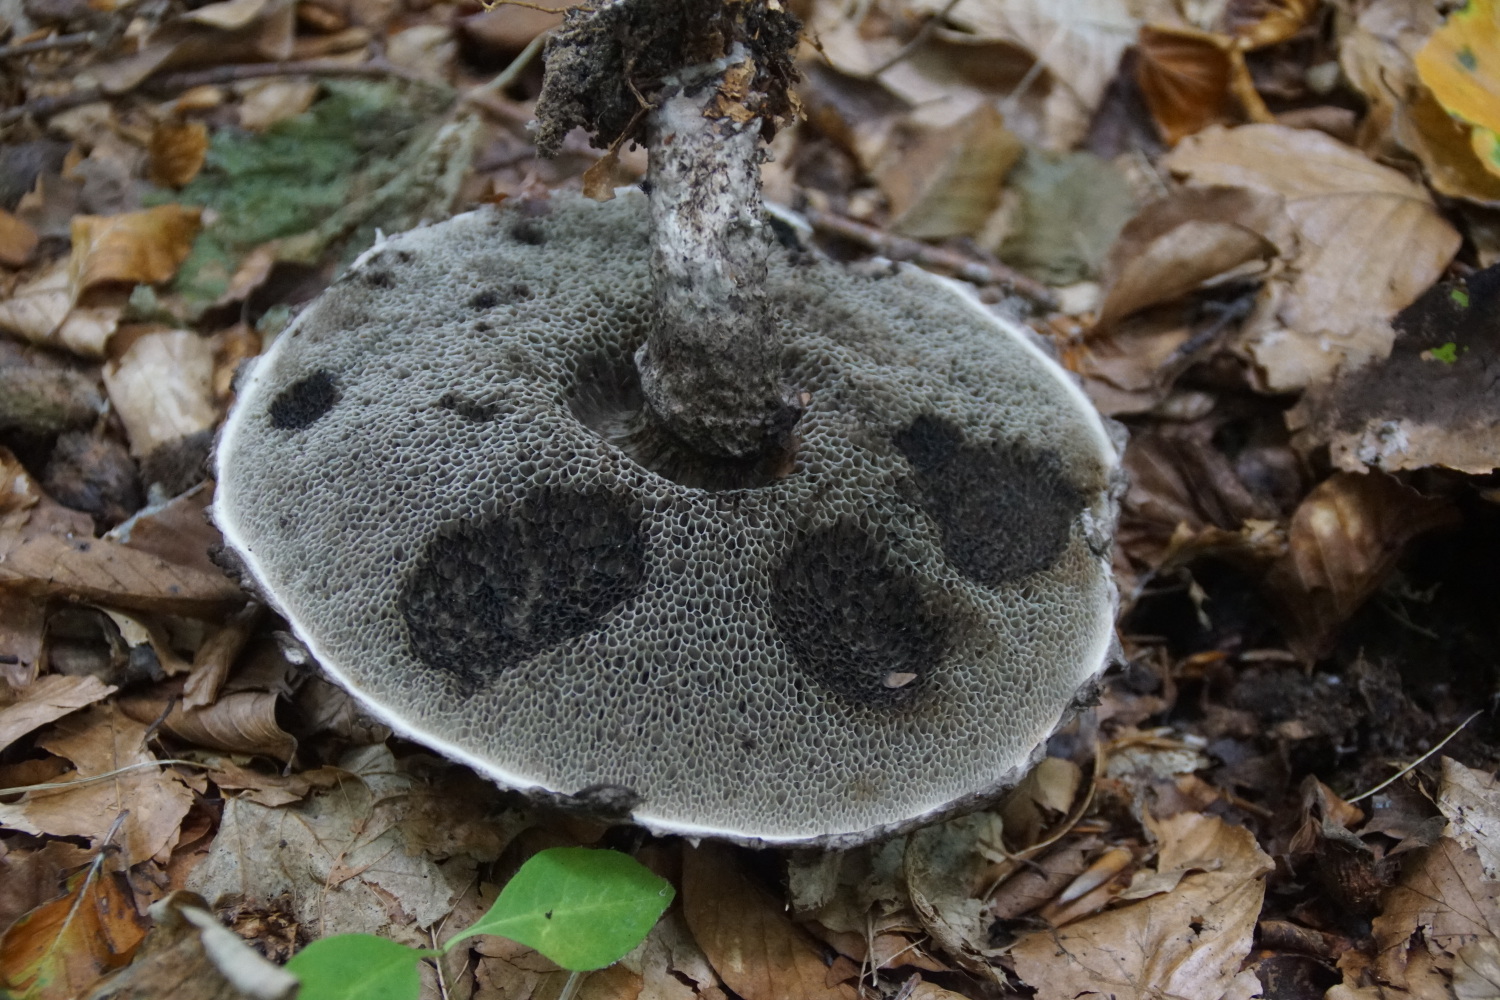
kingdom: Fungi
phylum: Basidiomycota
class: Agaricomycetes
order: Boletales
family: Boletaceae
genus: Strobilomyces
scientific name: Strobilomyces strobilaceus
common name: koglerørhat
